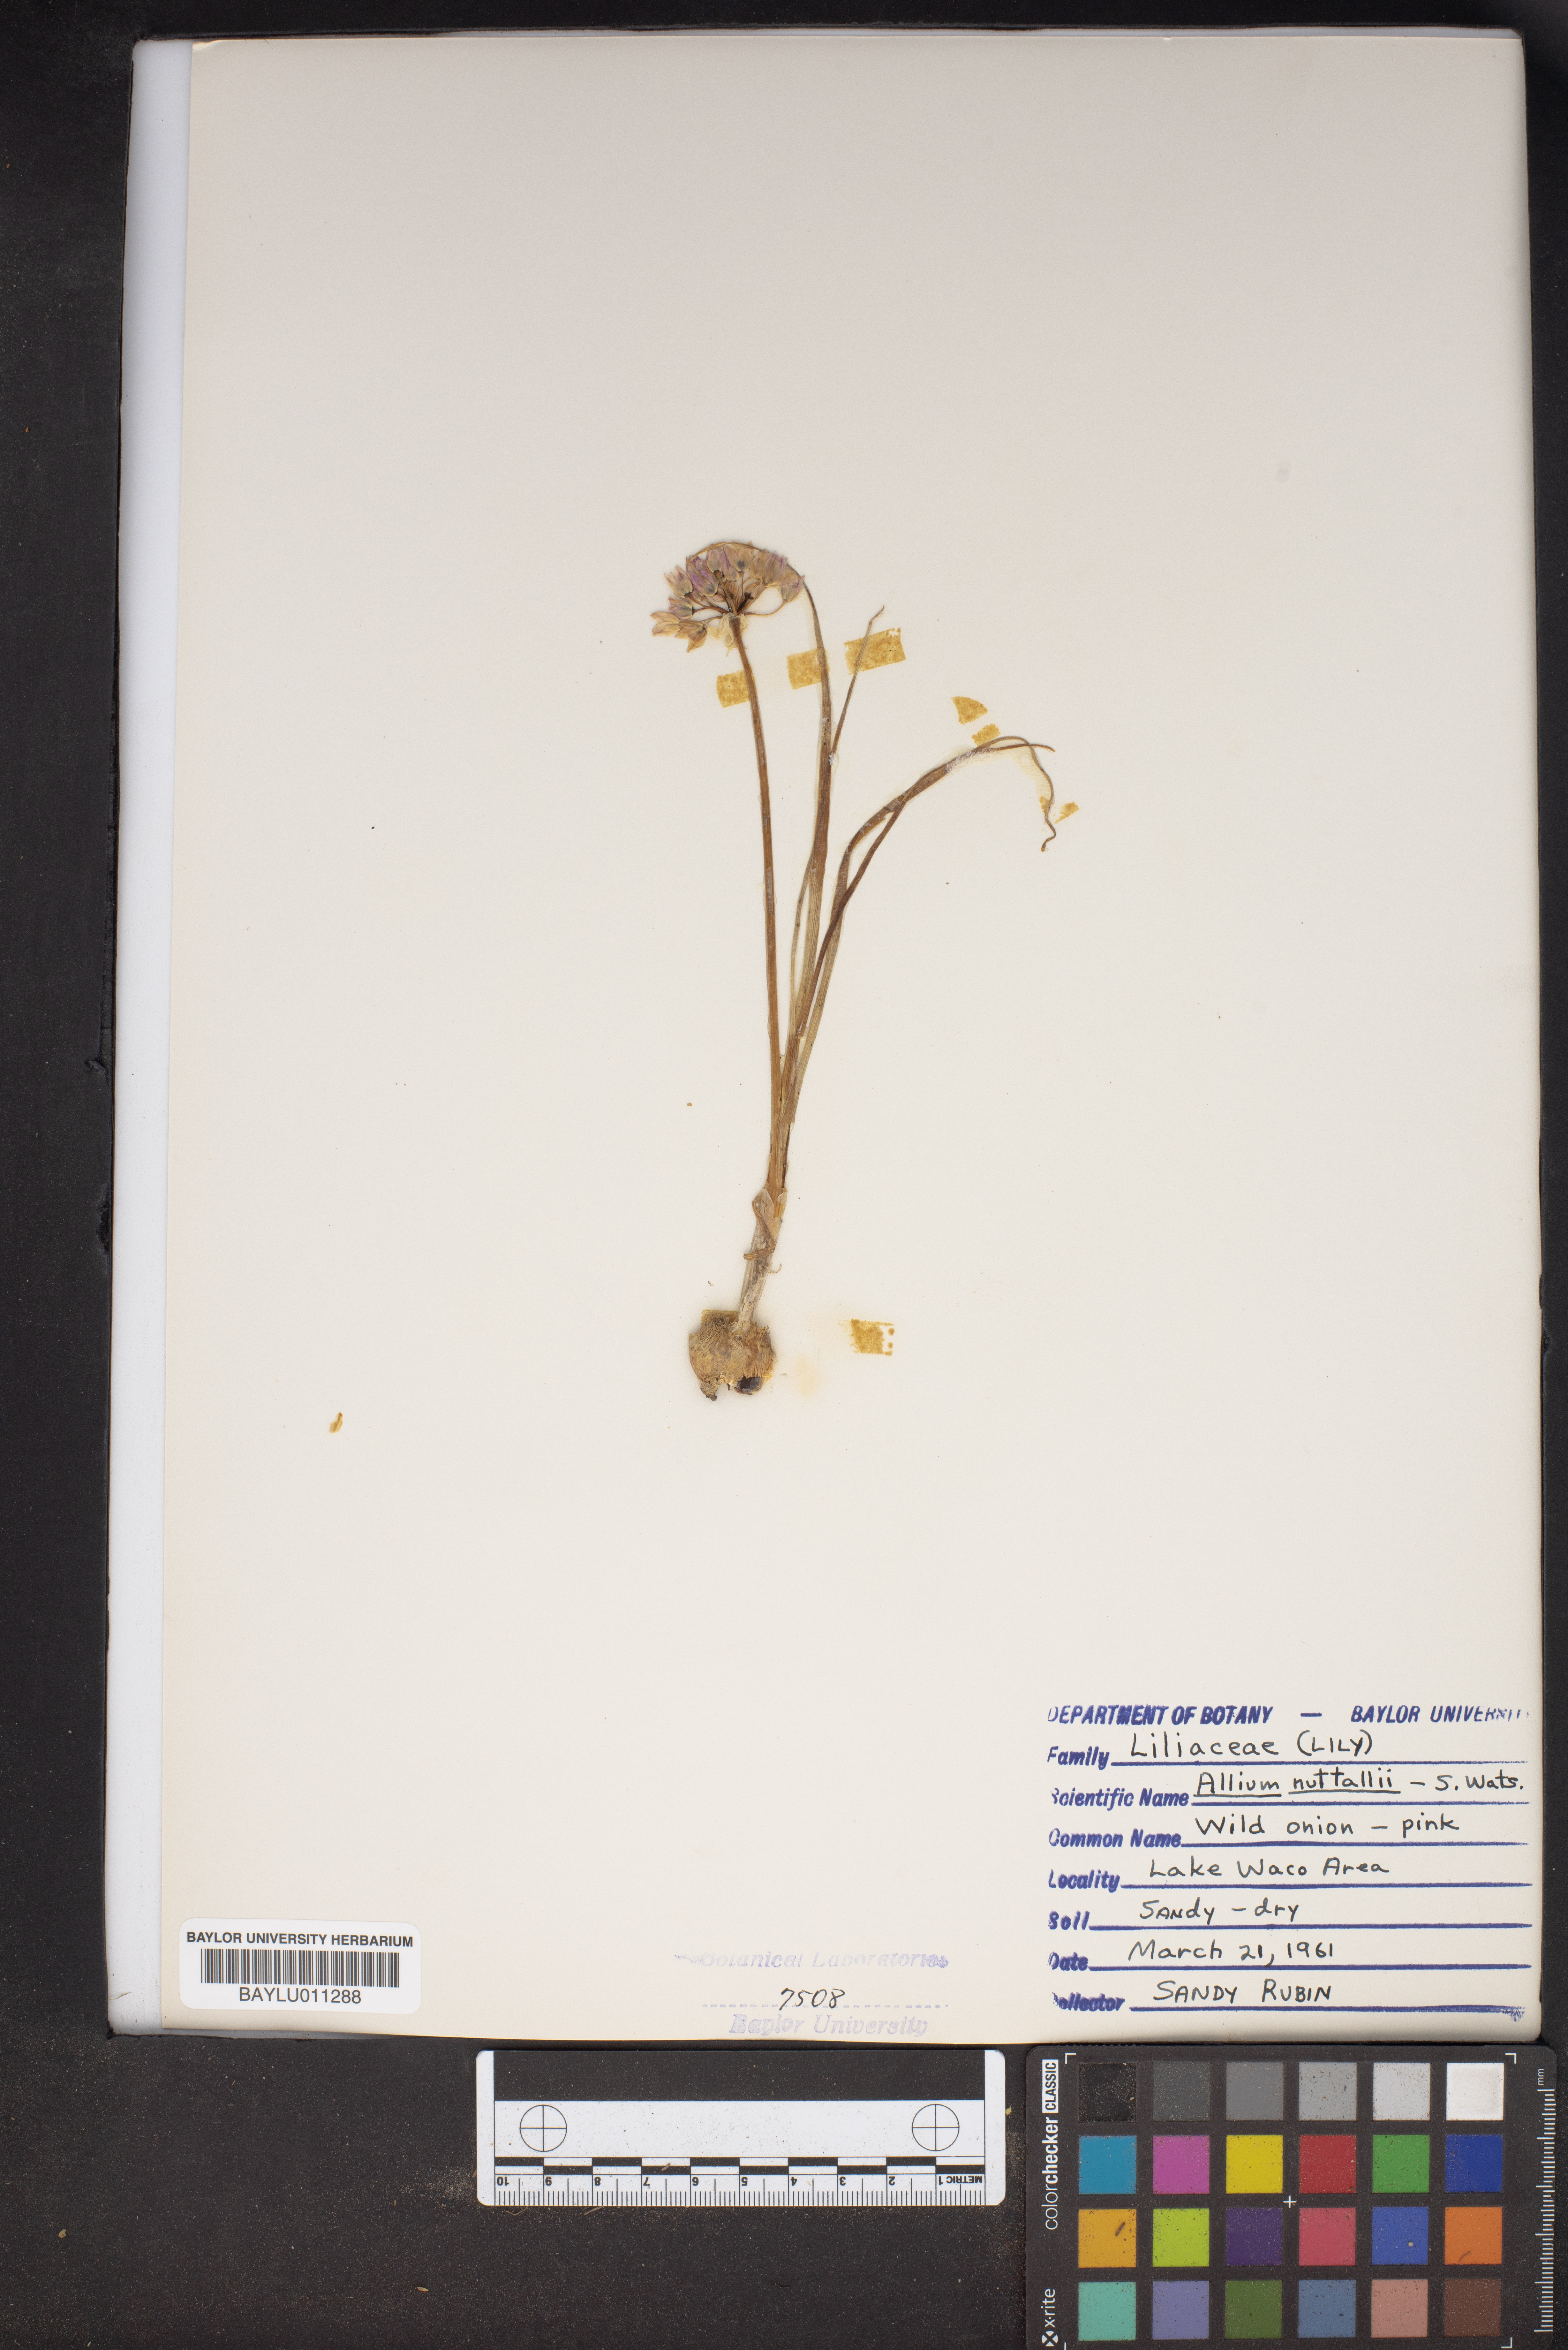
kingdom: Plantae
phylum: Tracheophyta
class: Liliopsida
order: Asparagales
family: Amaryllidaceae
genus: Allium
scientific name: Allium drummondii
